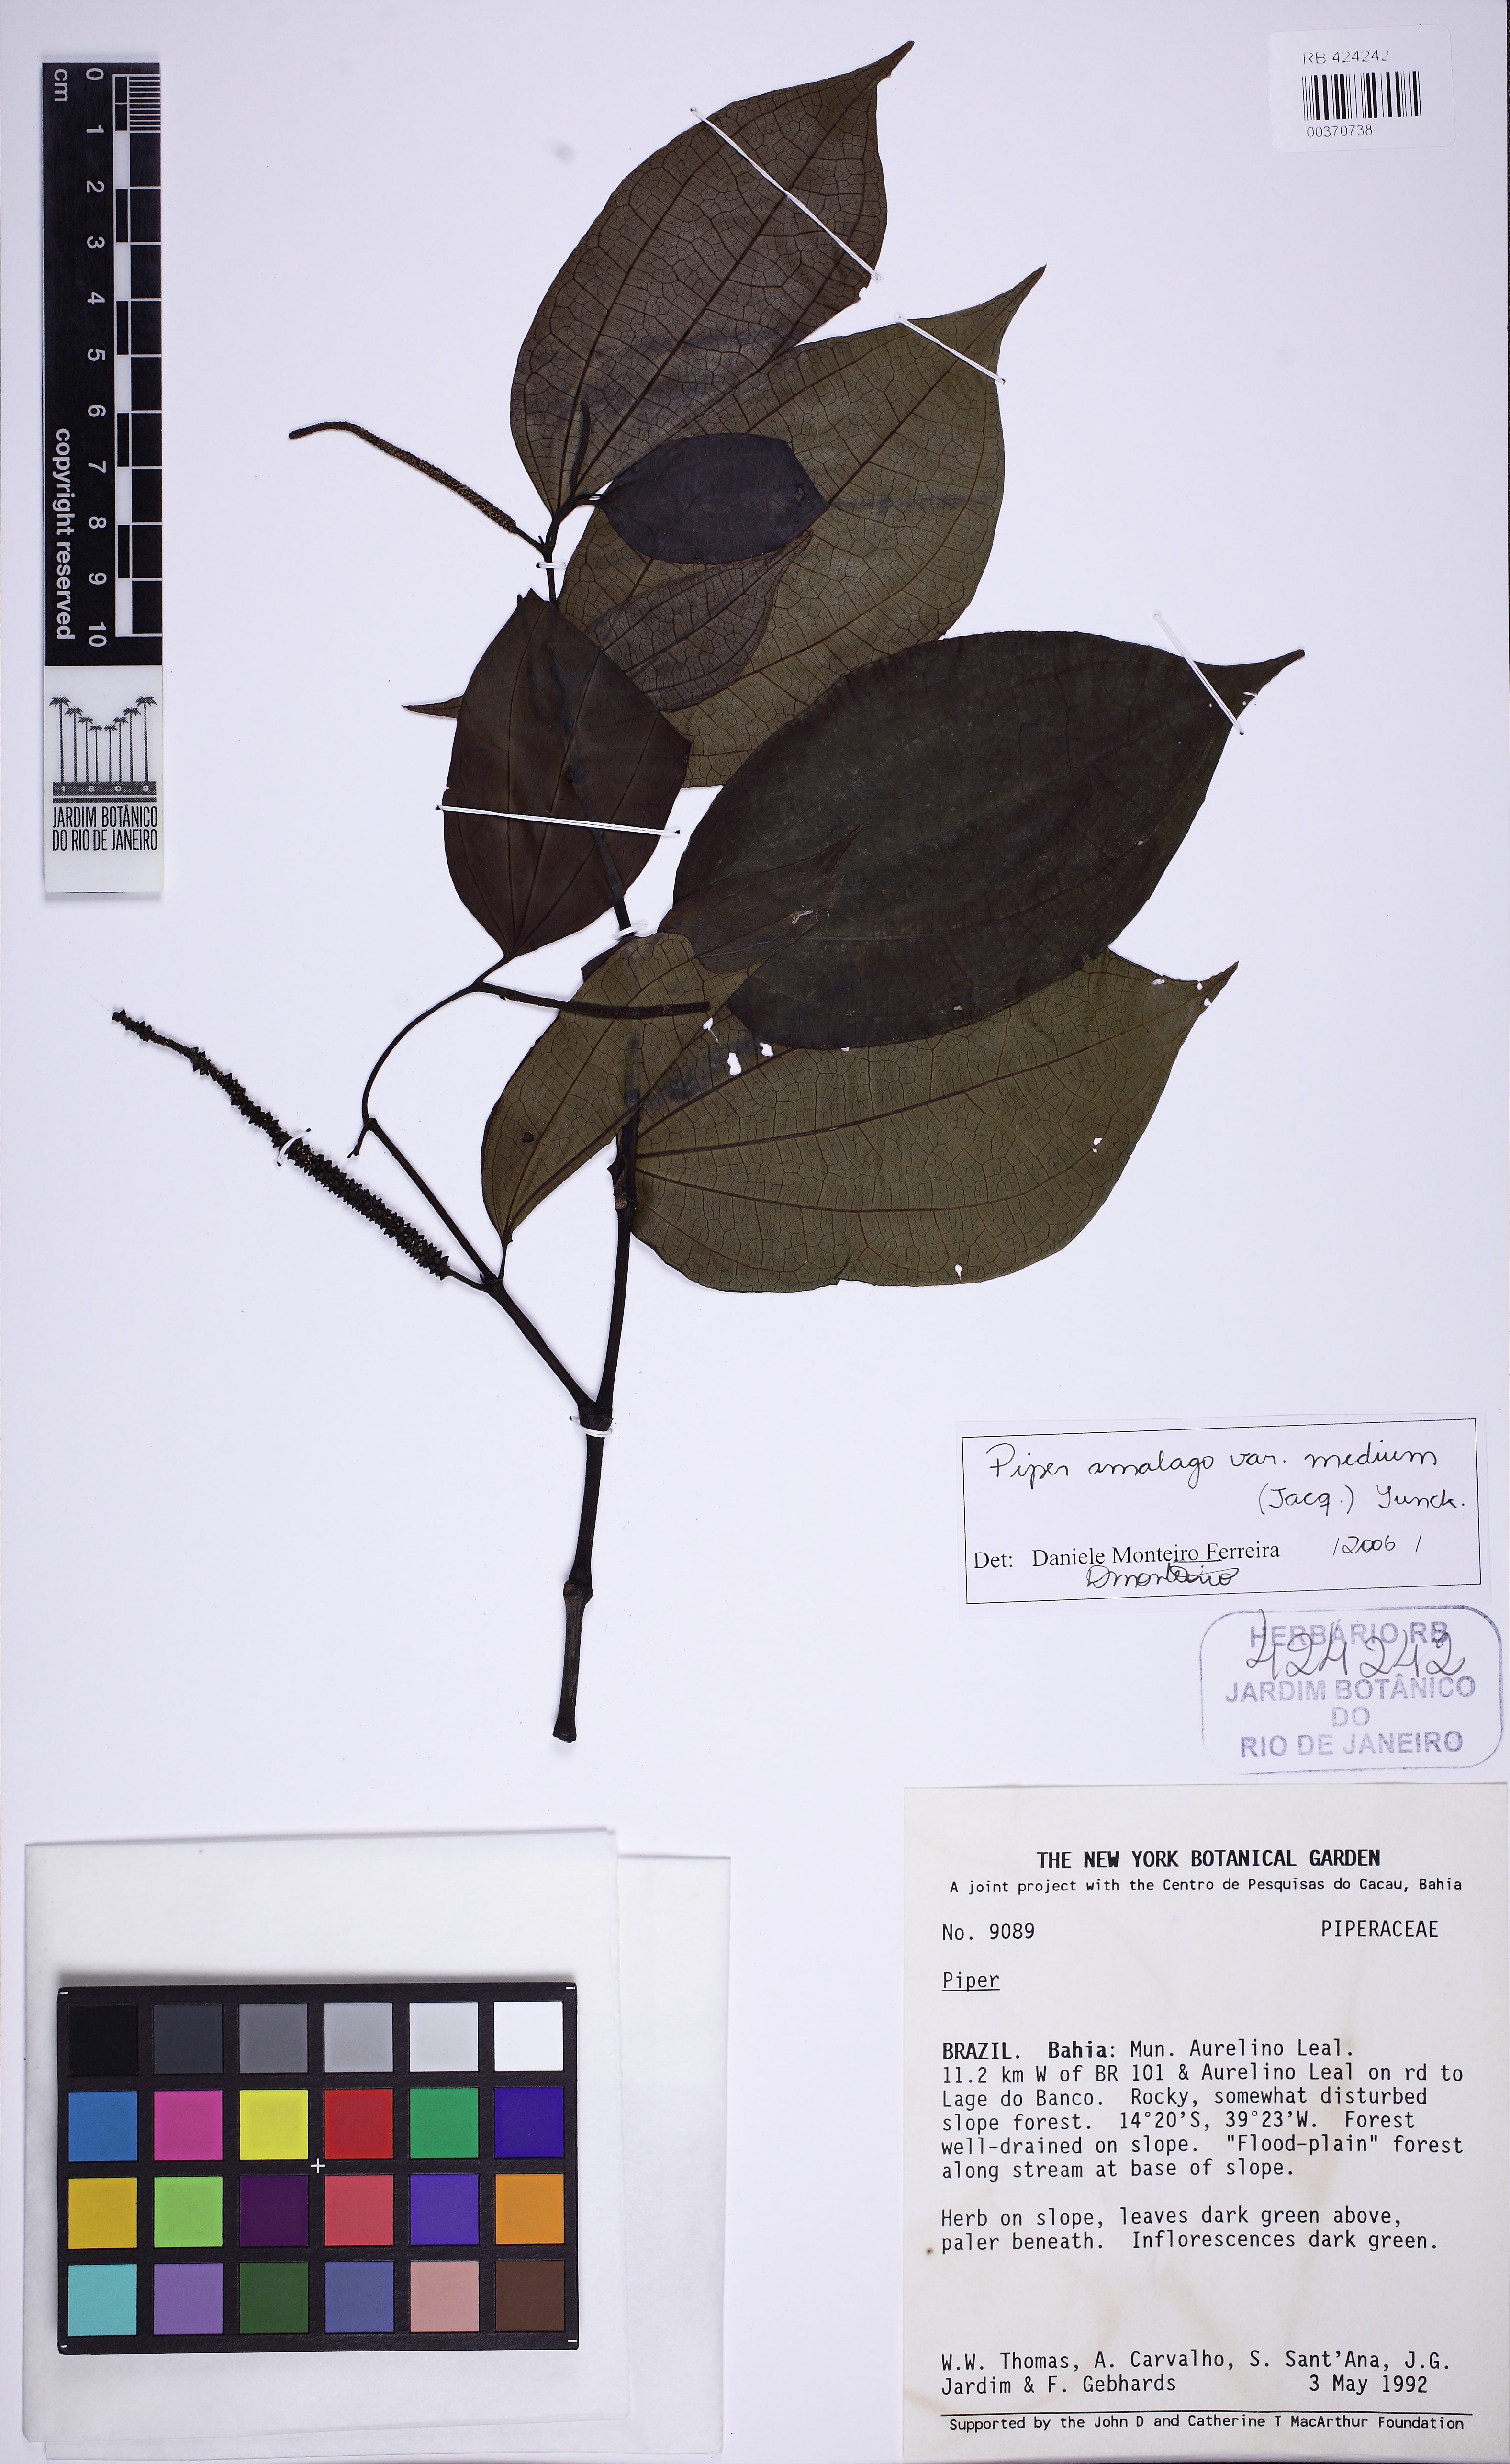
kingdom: Plantae
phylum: Tracheophyta
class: Magnoliopsida
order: Piperales
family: Piperaceae
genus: Piper
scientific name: Piper amalago
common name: Pepper-elder
